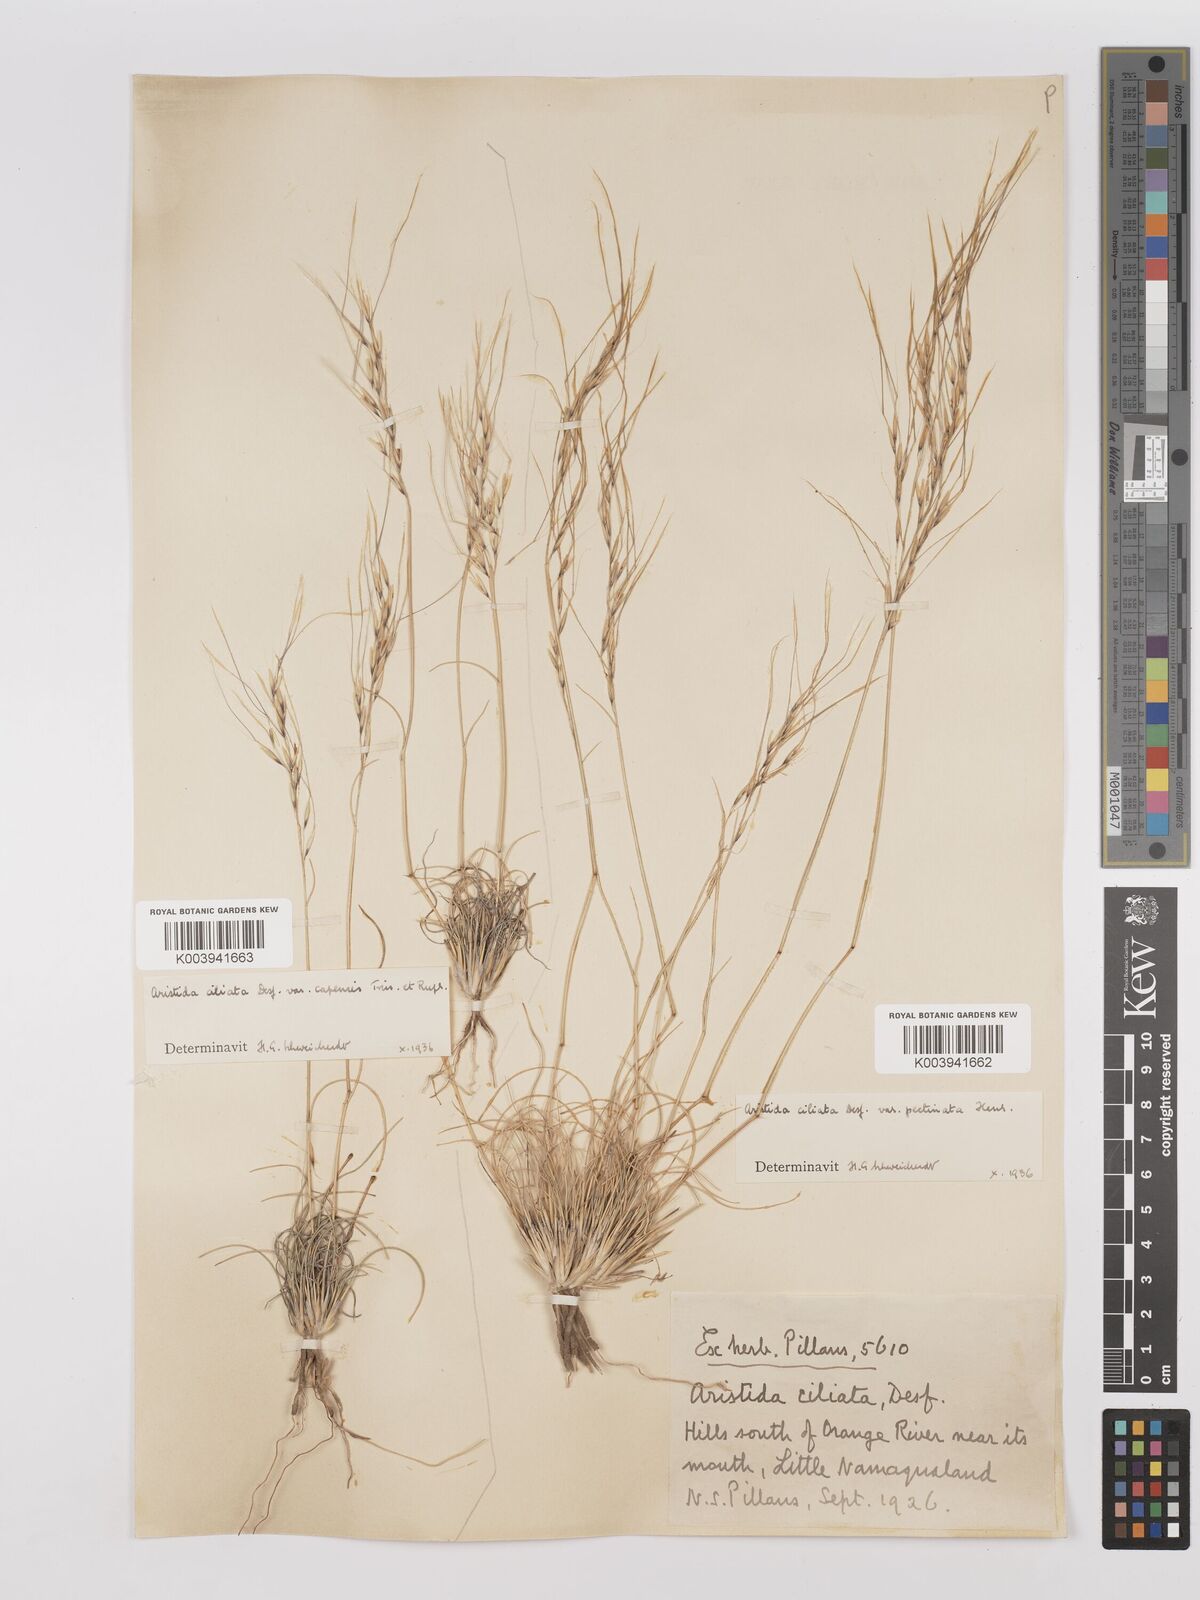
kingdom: Plantae
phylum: Tracheophyta
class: Liliopsida
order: Poales
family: Poaceae
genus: Stipagrostis
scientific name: Stipagrostis ciliata
